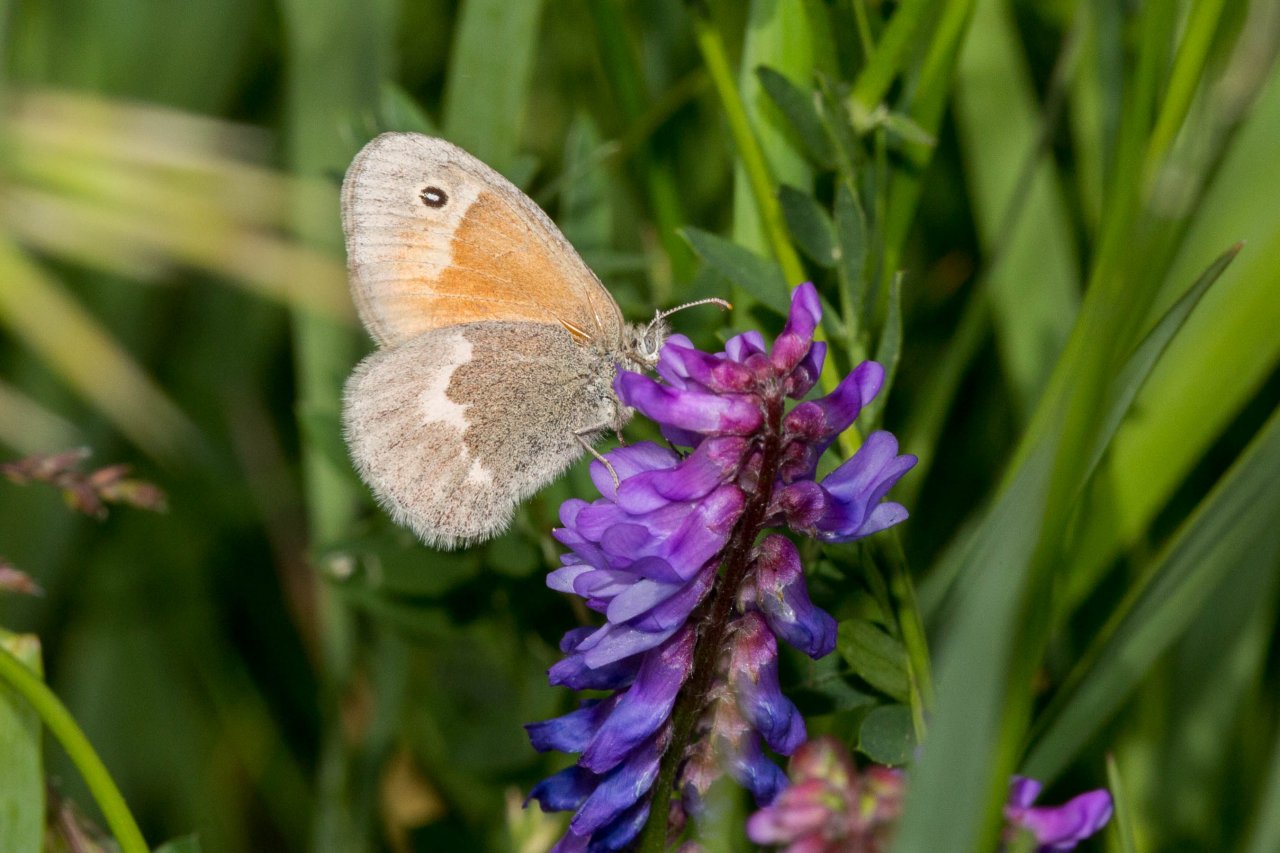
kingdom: Animalia
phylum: Arthropoda
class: Insecta
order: Lepidoptera
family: Nymphalidae
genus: Coenonympha
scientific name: Coenonympha tullia
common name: Large Heath
